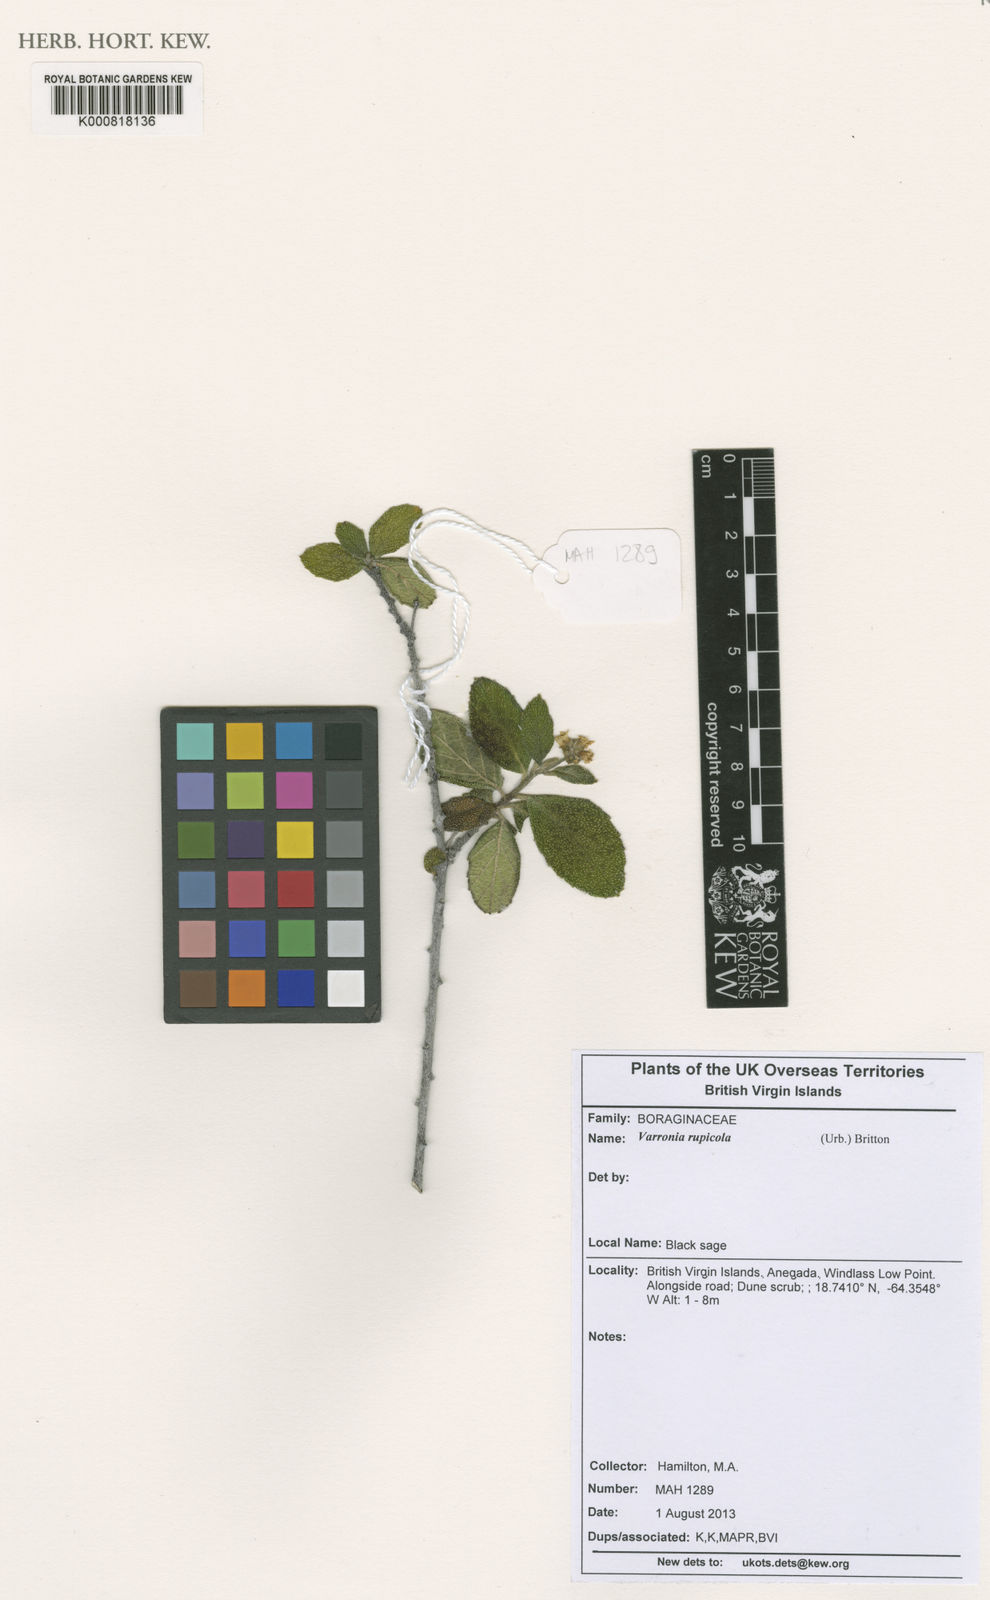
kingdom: Plantae
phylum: Tracheophyta
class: Magnoliopsida
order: Boraginales
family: Cordiaceae
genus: Varronia
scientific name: Varronia rupicola
